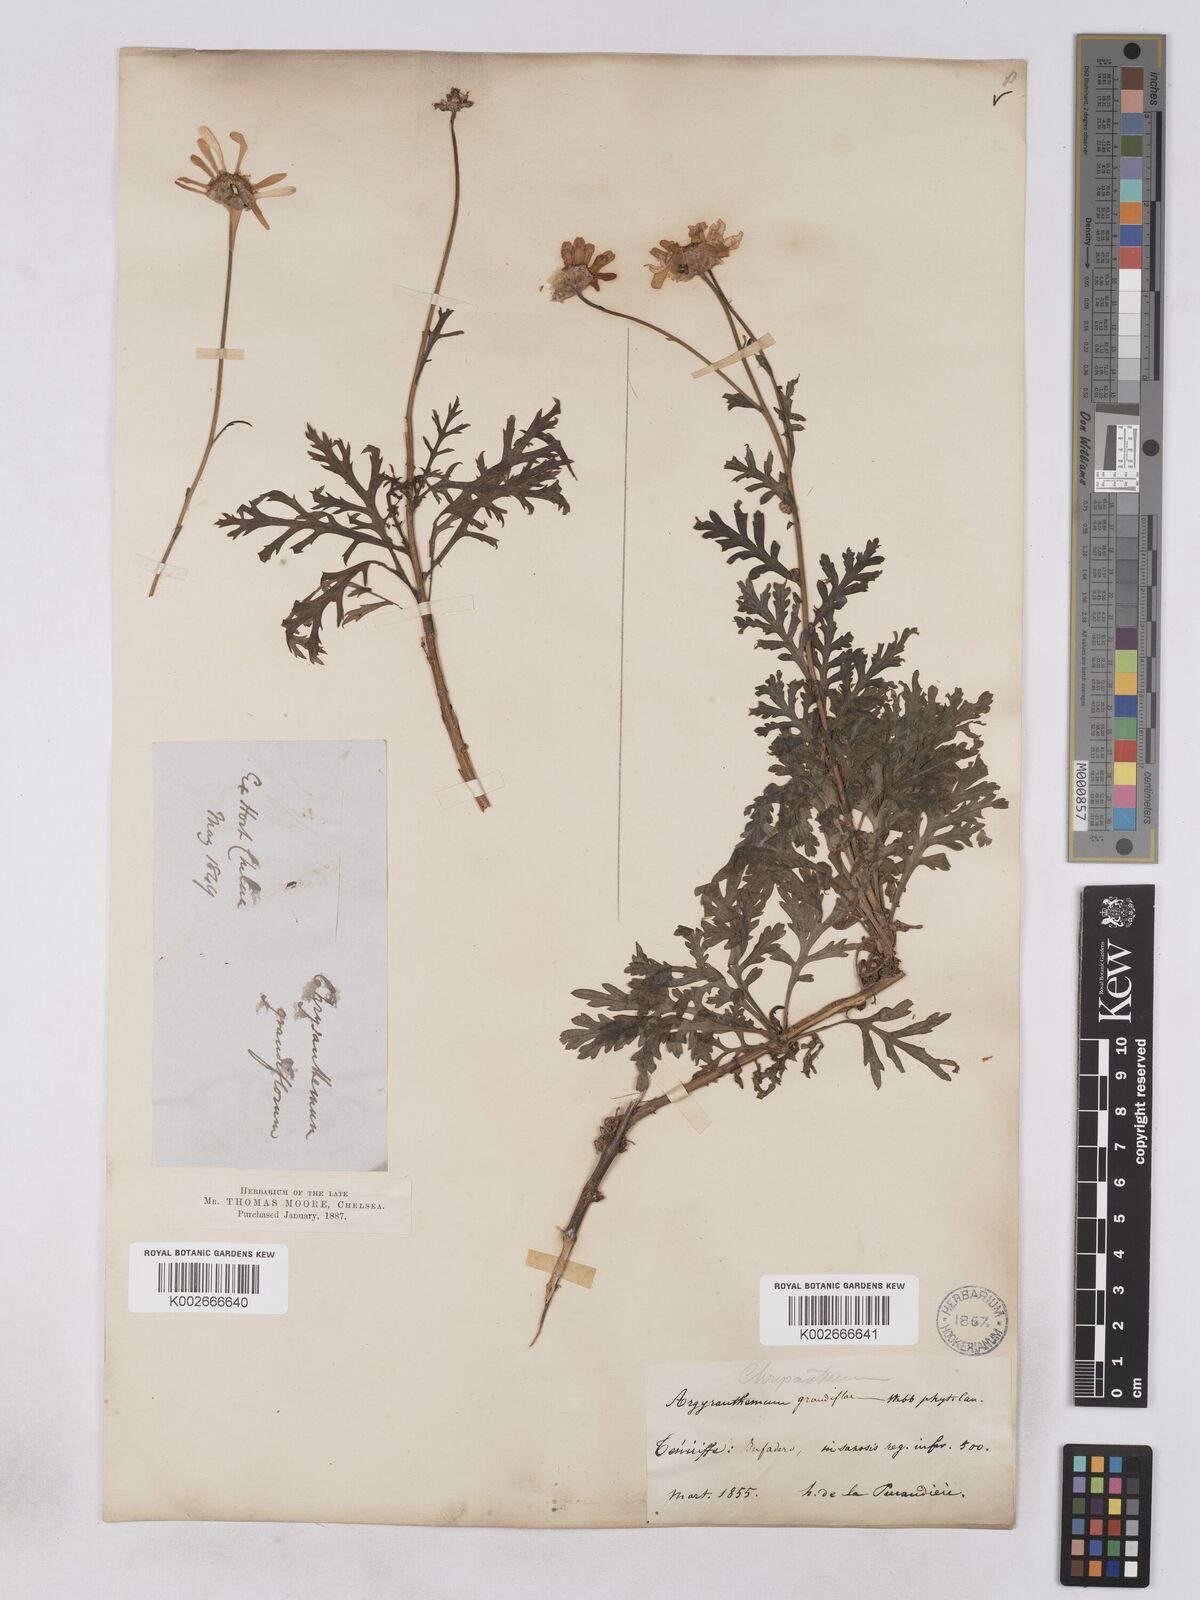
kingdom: Plantae
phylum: Tracheophyta
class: Magnoliopsida
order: Asterales
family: Asteraceae
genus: Argyranthemum
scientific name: Argyranthemum
